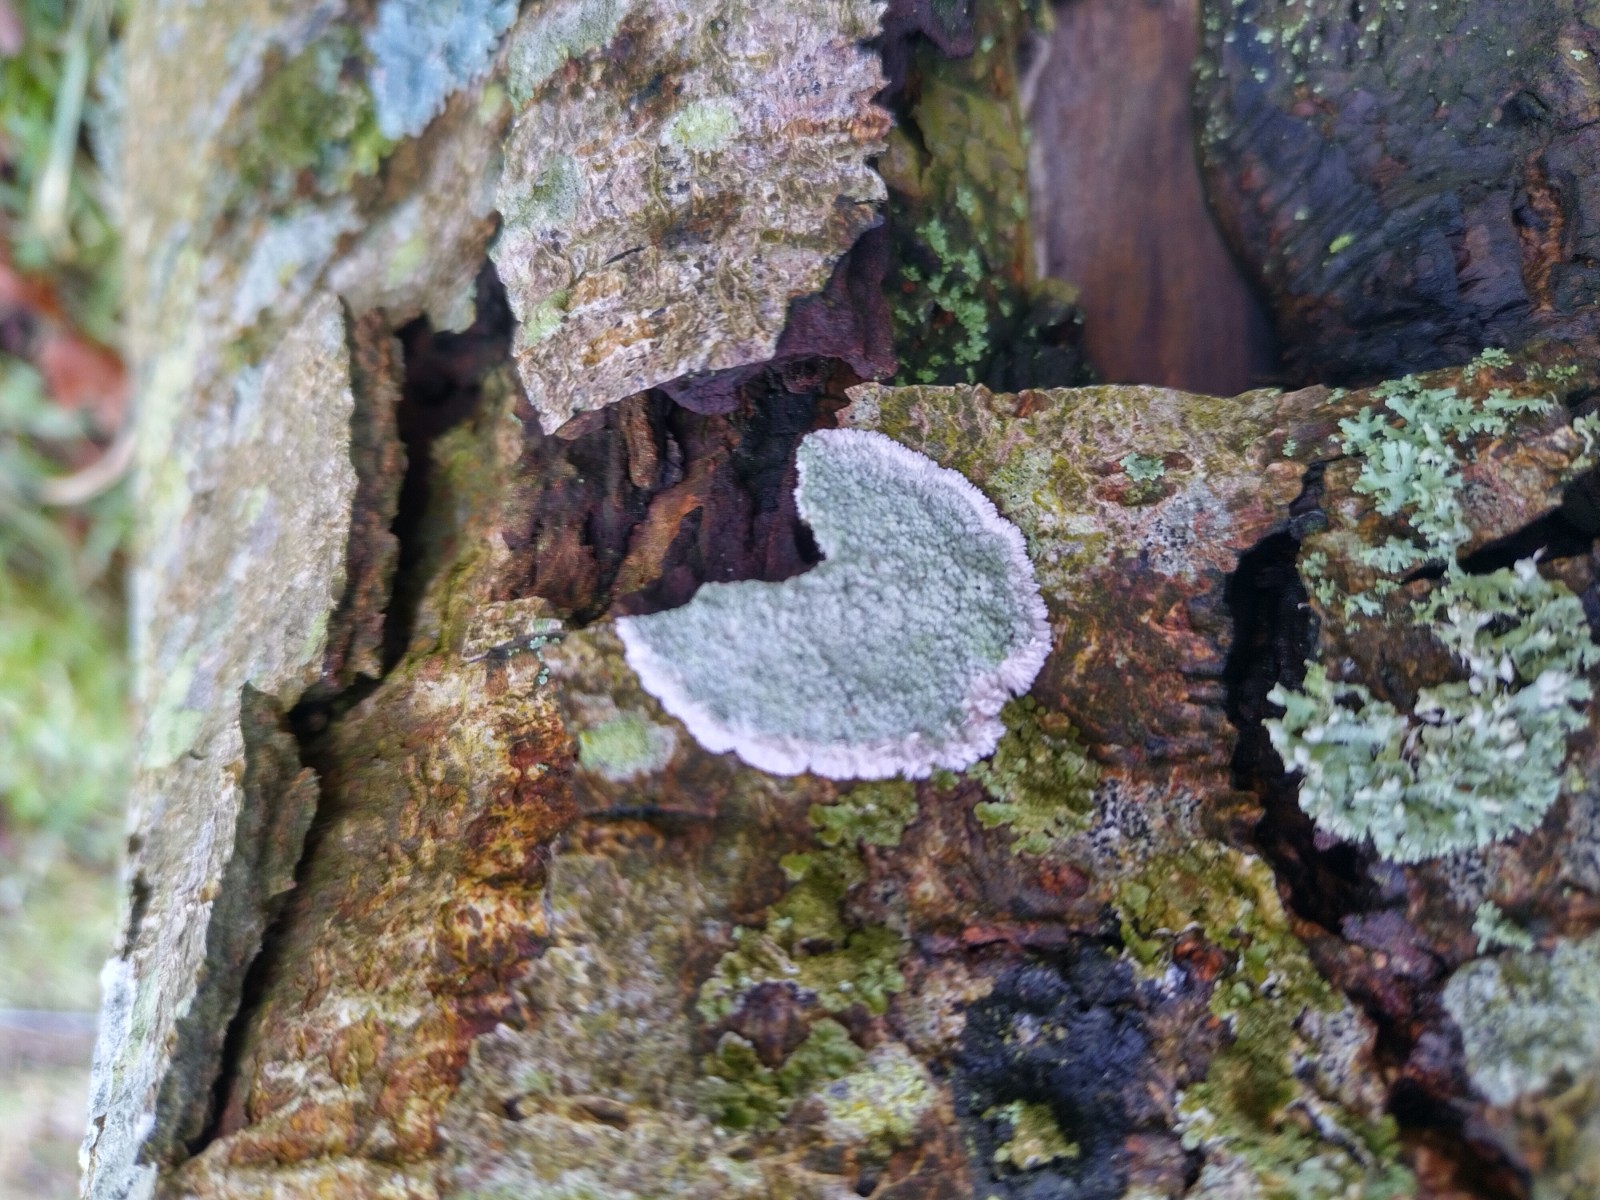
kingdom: Fungi
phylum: Ascomycota
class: Lecanoromycetes
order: Lecanorales
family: Haematommataceae
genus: Haematomma
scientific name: Haematomma ochroleucum
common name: gul trådkantlav
